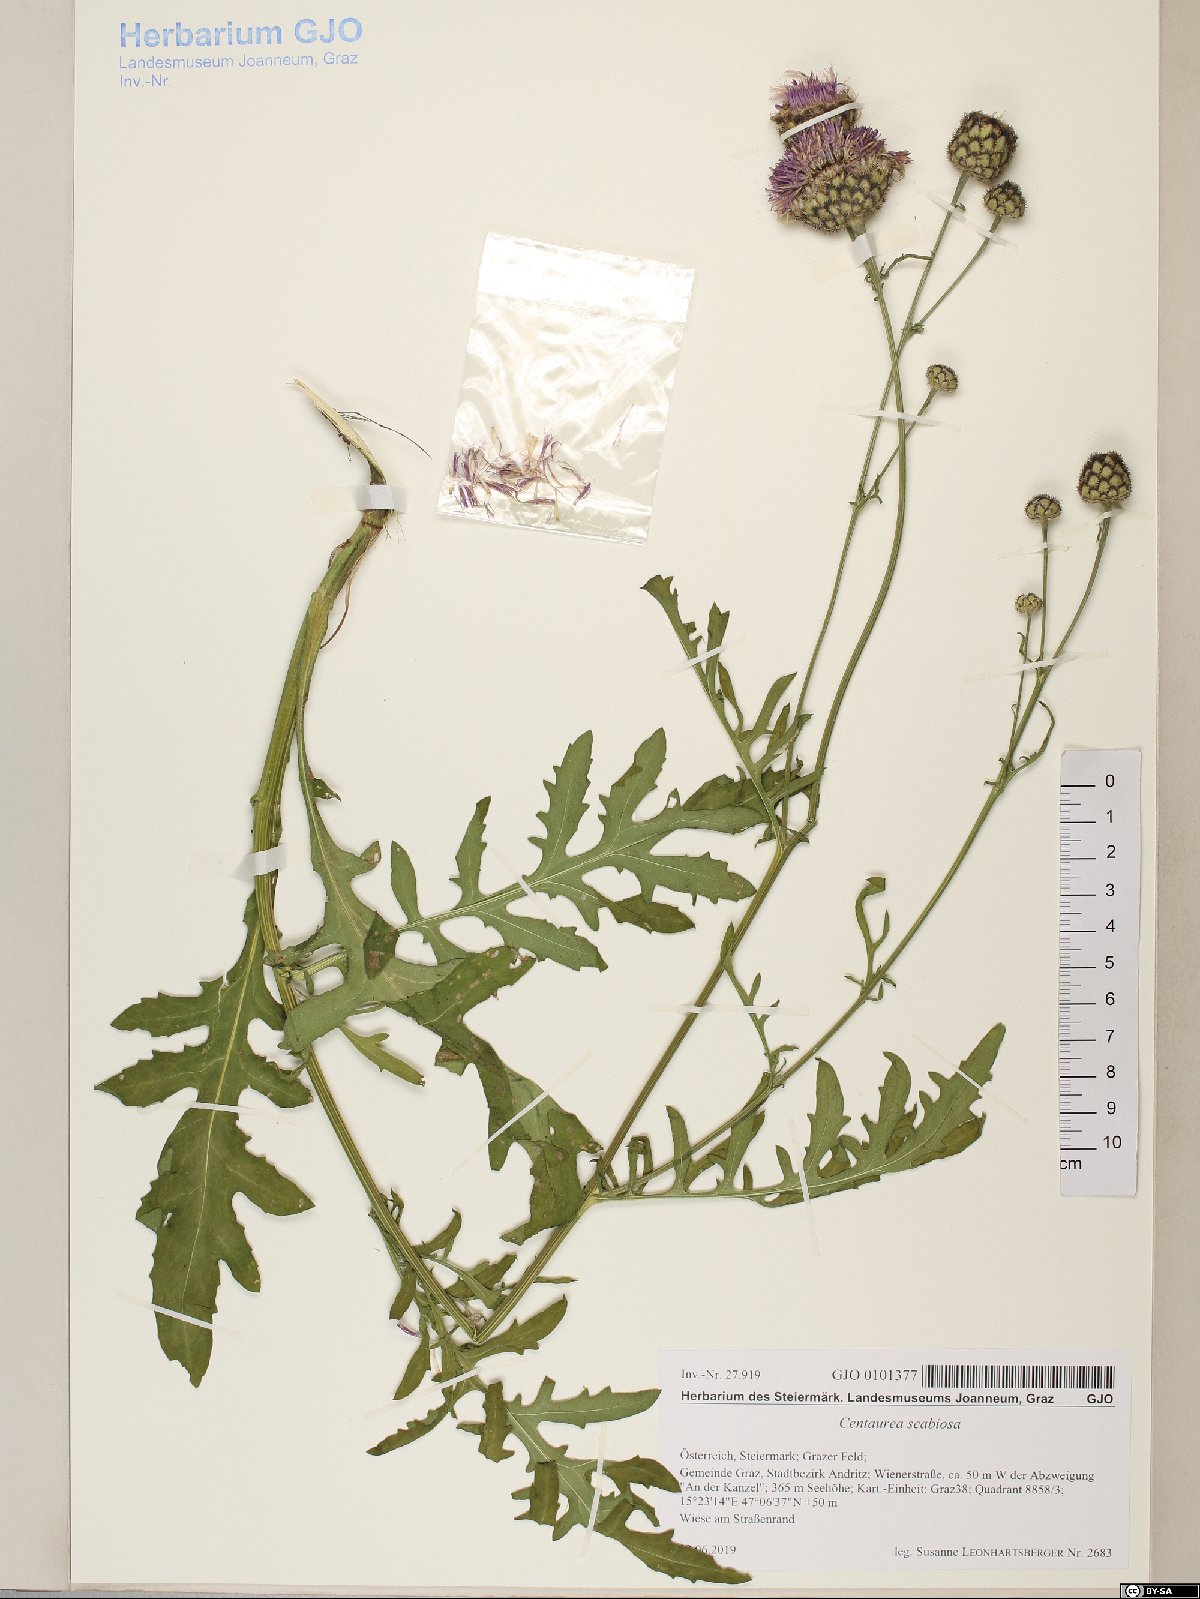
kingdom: Plantae
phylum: Tracheophyta
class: Magnoliopsida
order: Asterales
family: Asteraceae
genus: Centaurea
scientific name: Centaurea scabiosa
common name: Greater knapweed
